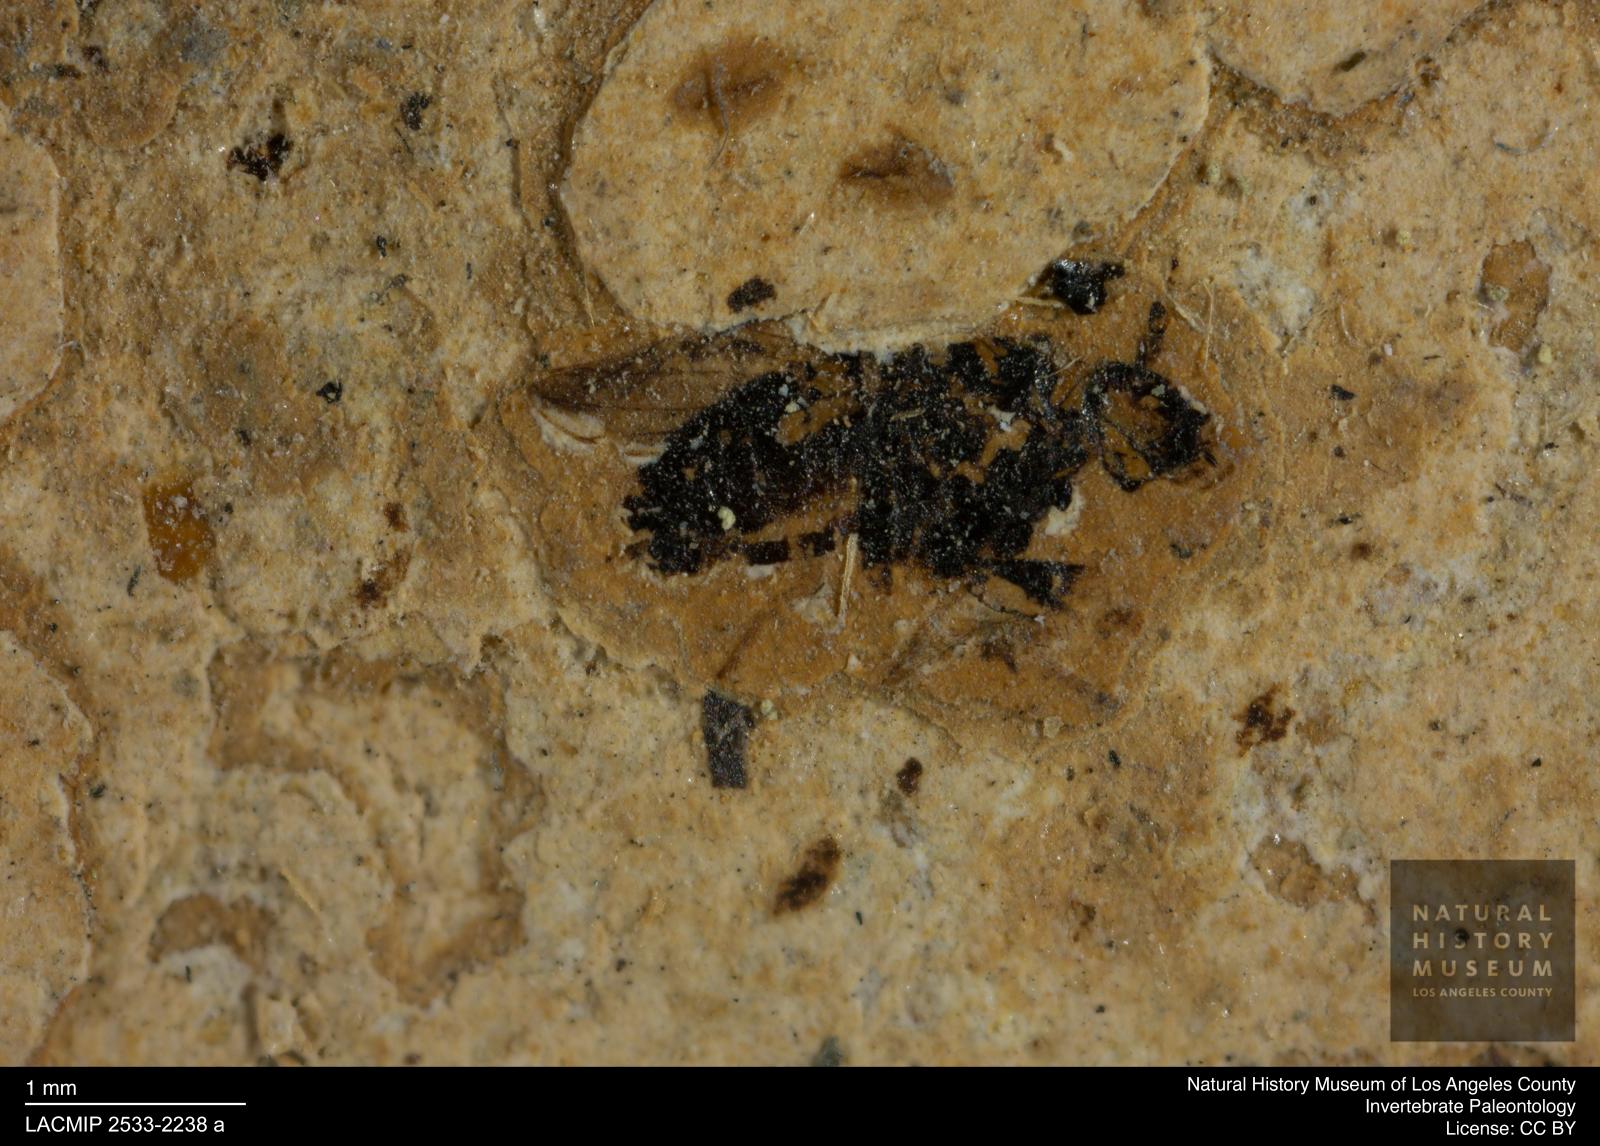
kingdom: Animalia
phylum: Arthropoda
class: Insecta
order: Diptera
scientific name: Diptera
